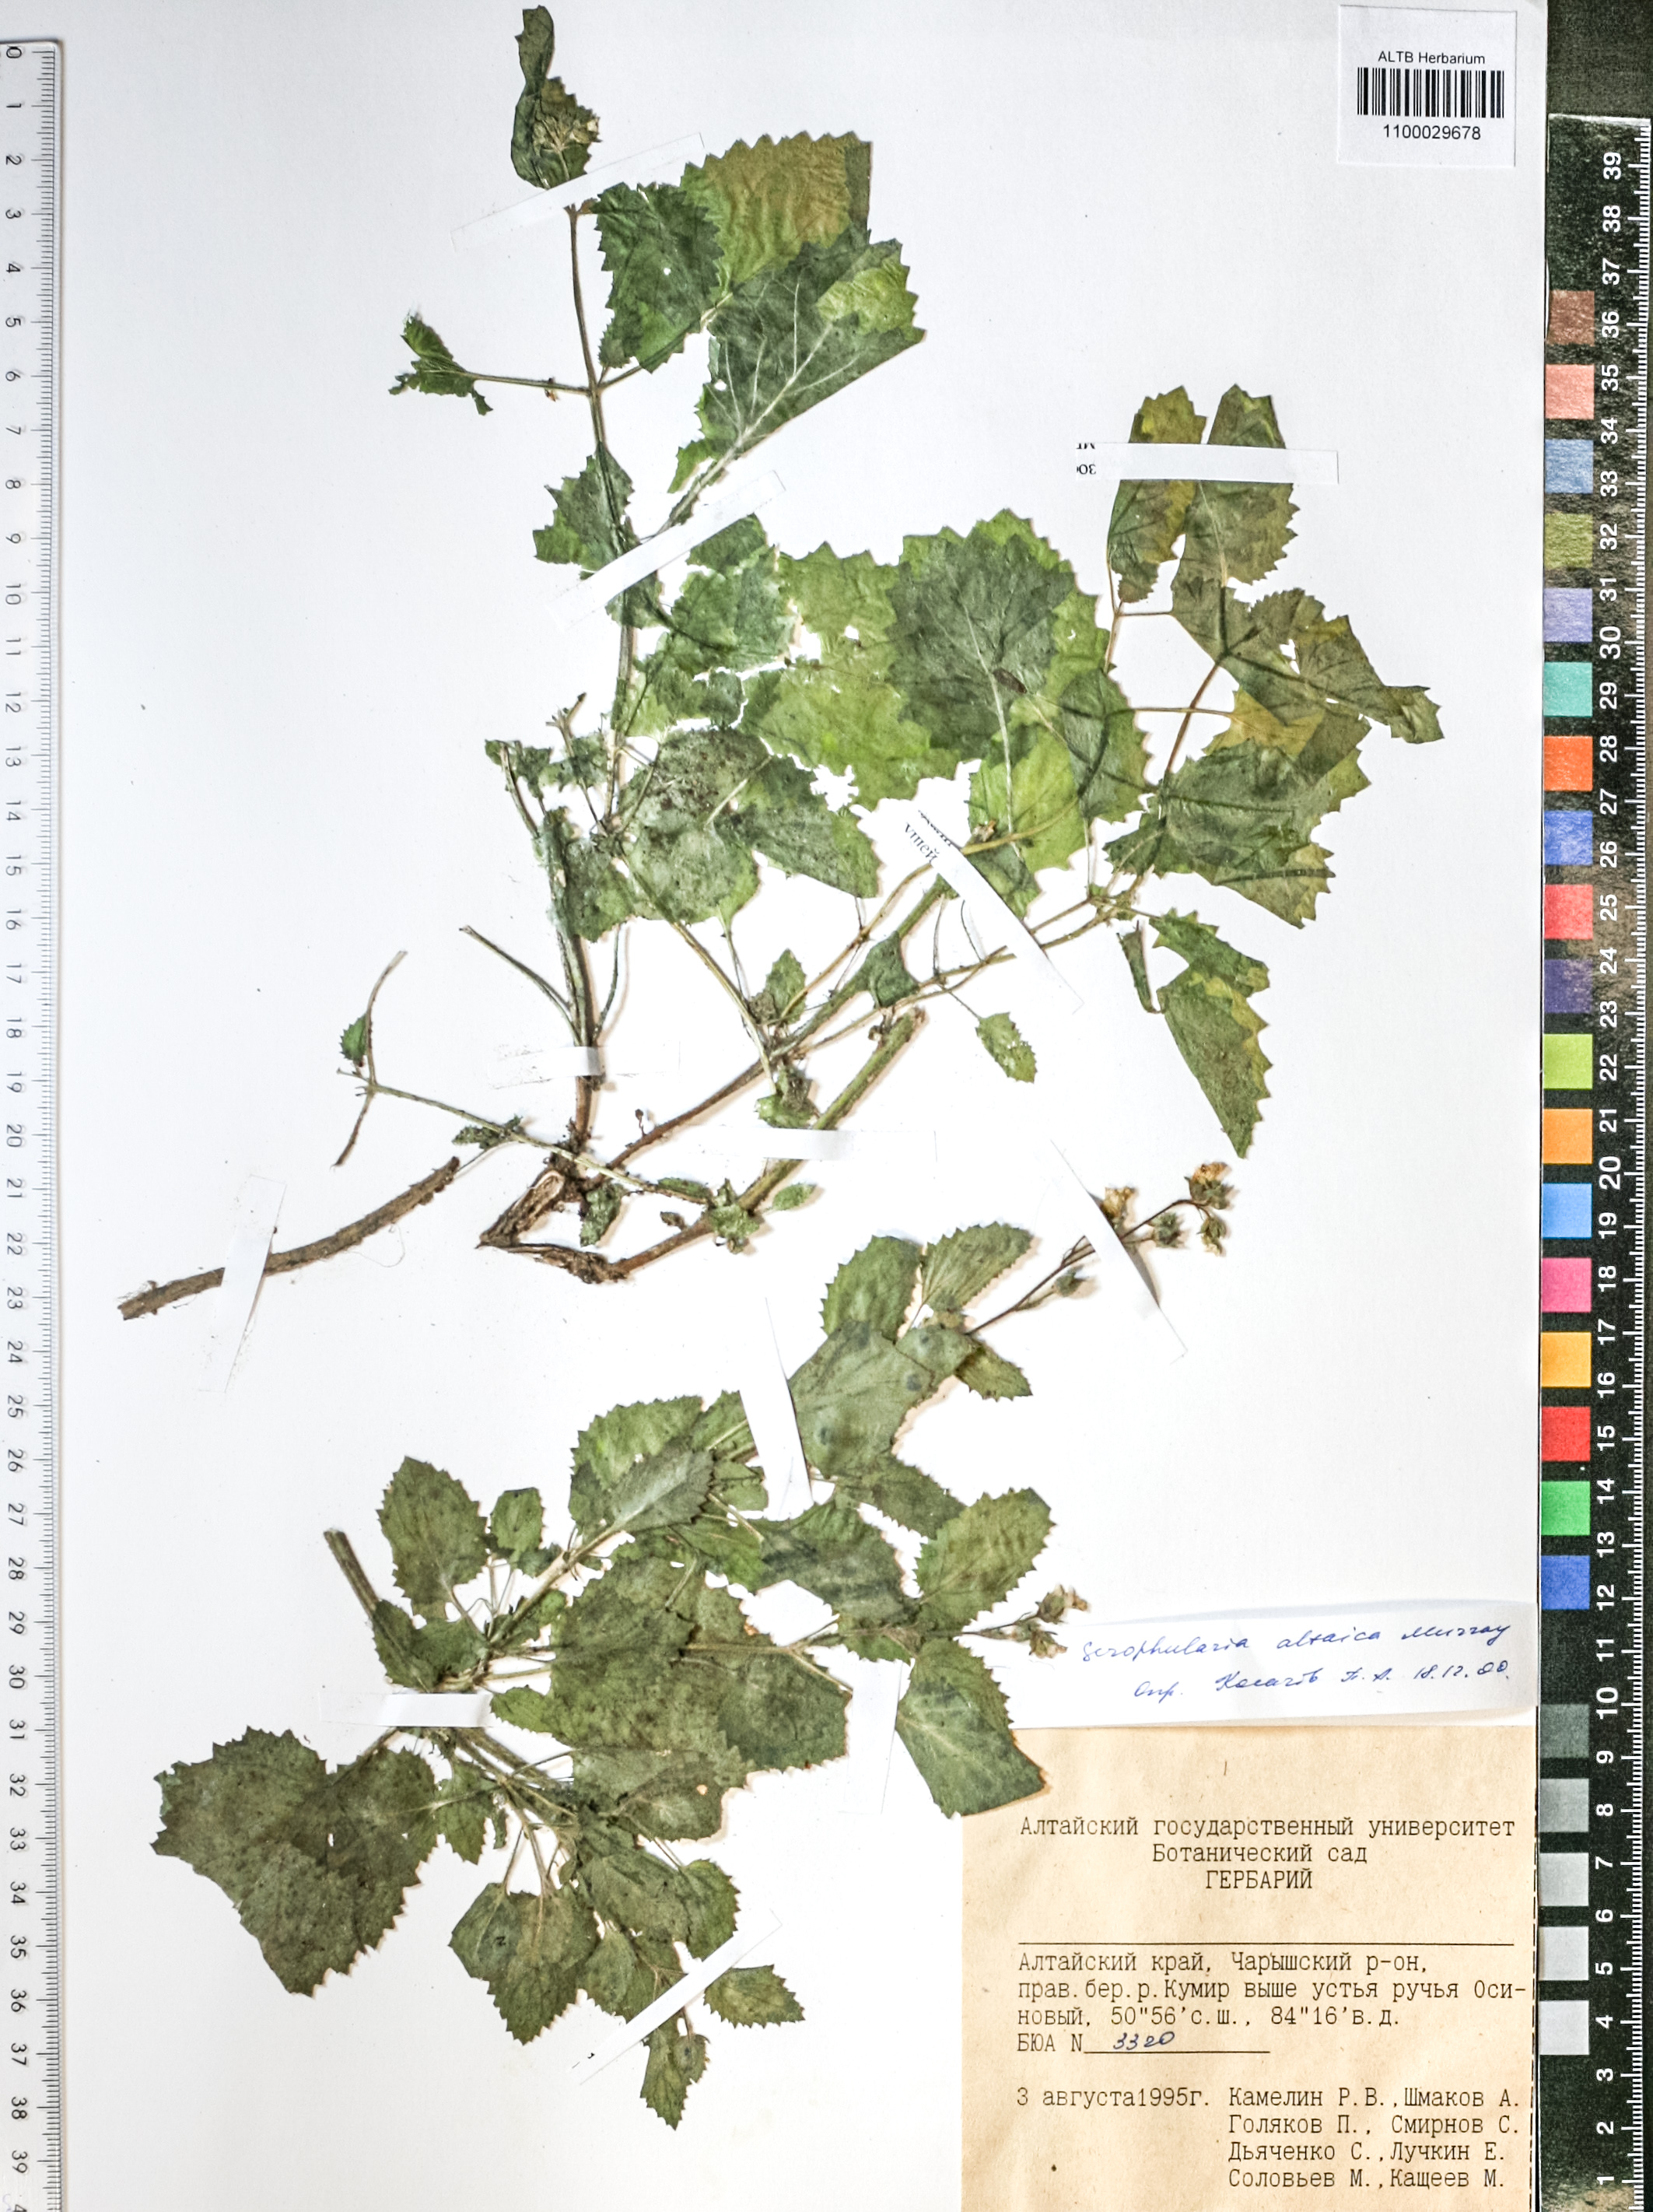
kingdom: Plantae
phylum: Tracheophyta
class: Magnoliopsida
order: Lamiales
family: Scrophulariaceae
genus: Scrophularia
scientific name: Scrophularia altaica
